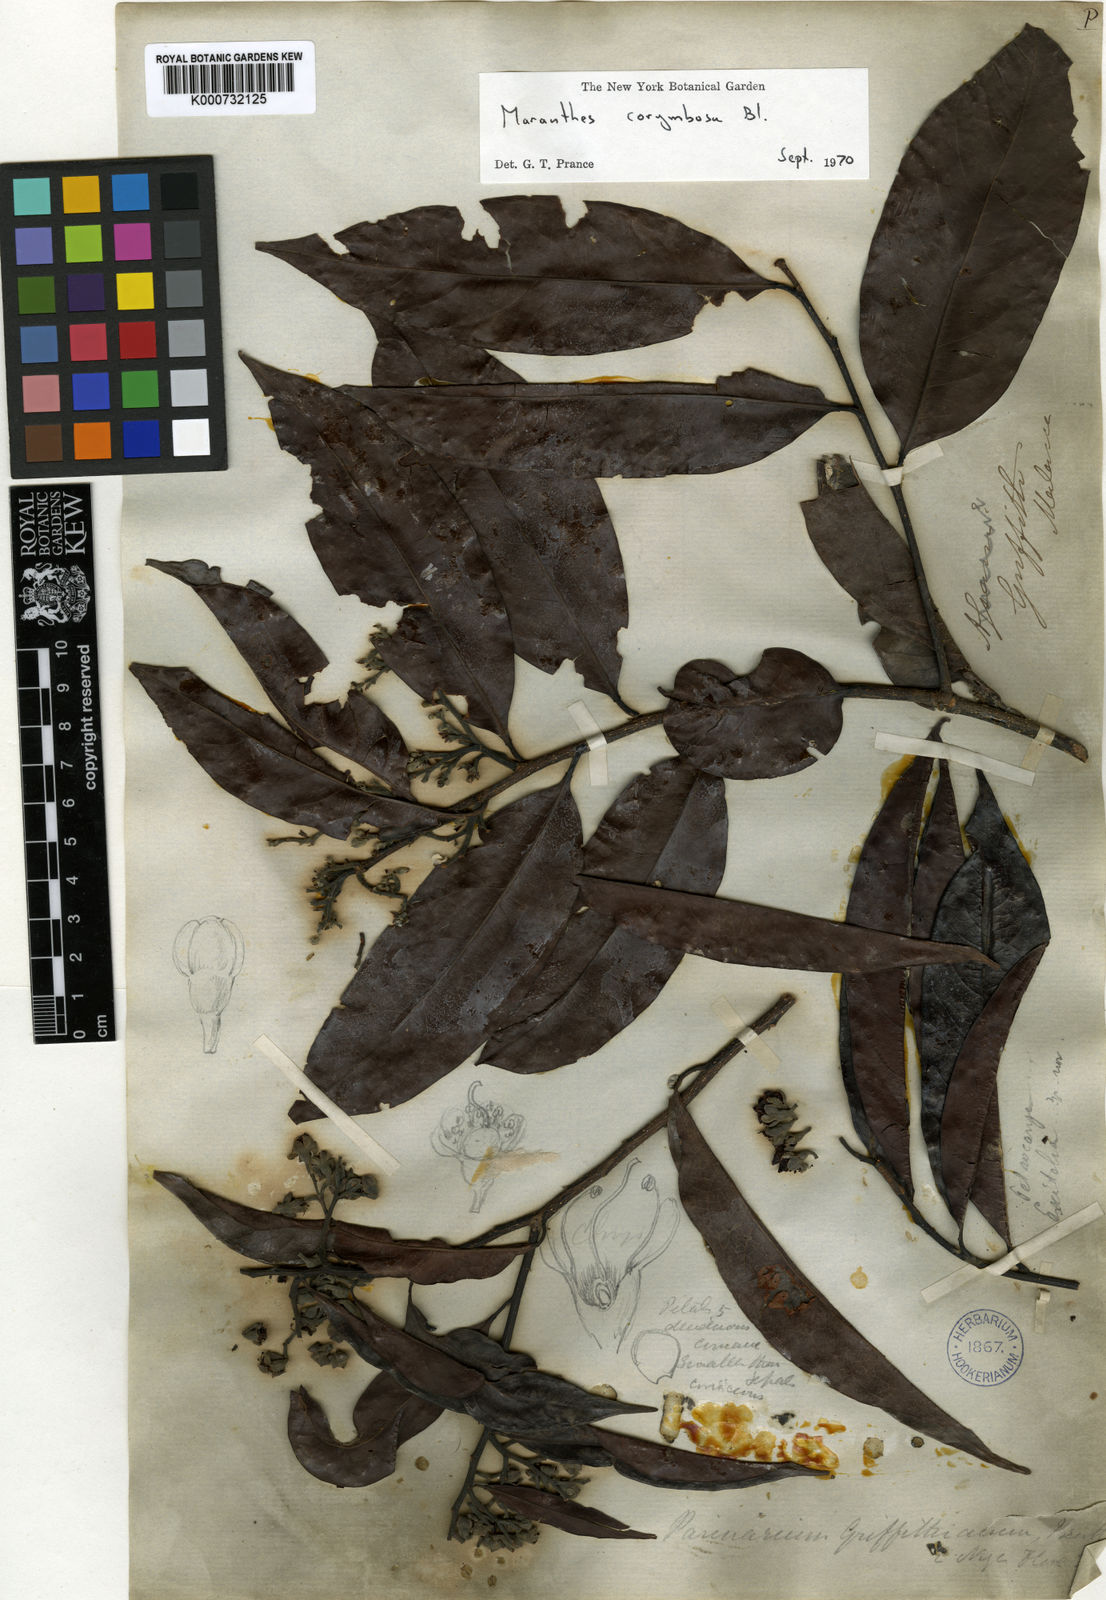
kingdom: Plantae
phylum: Tracheophyta
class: Magnoliopsida
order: Malpighiales
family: Chrysobalanaceae
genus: Maranthes
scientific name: Maranthes corymbosa
